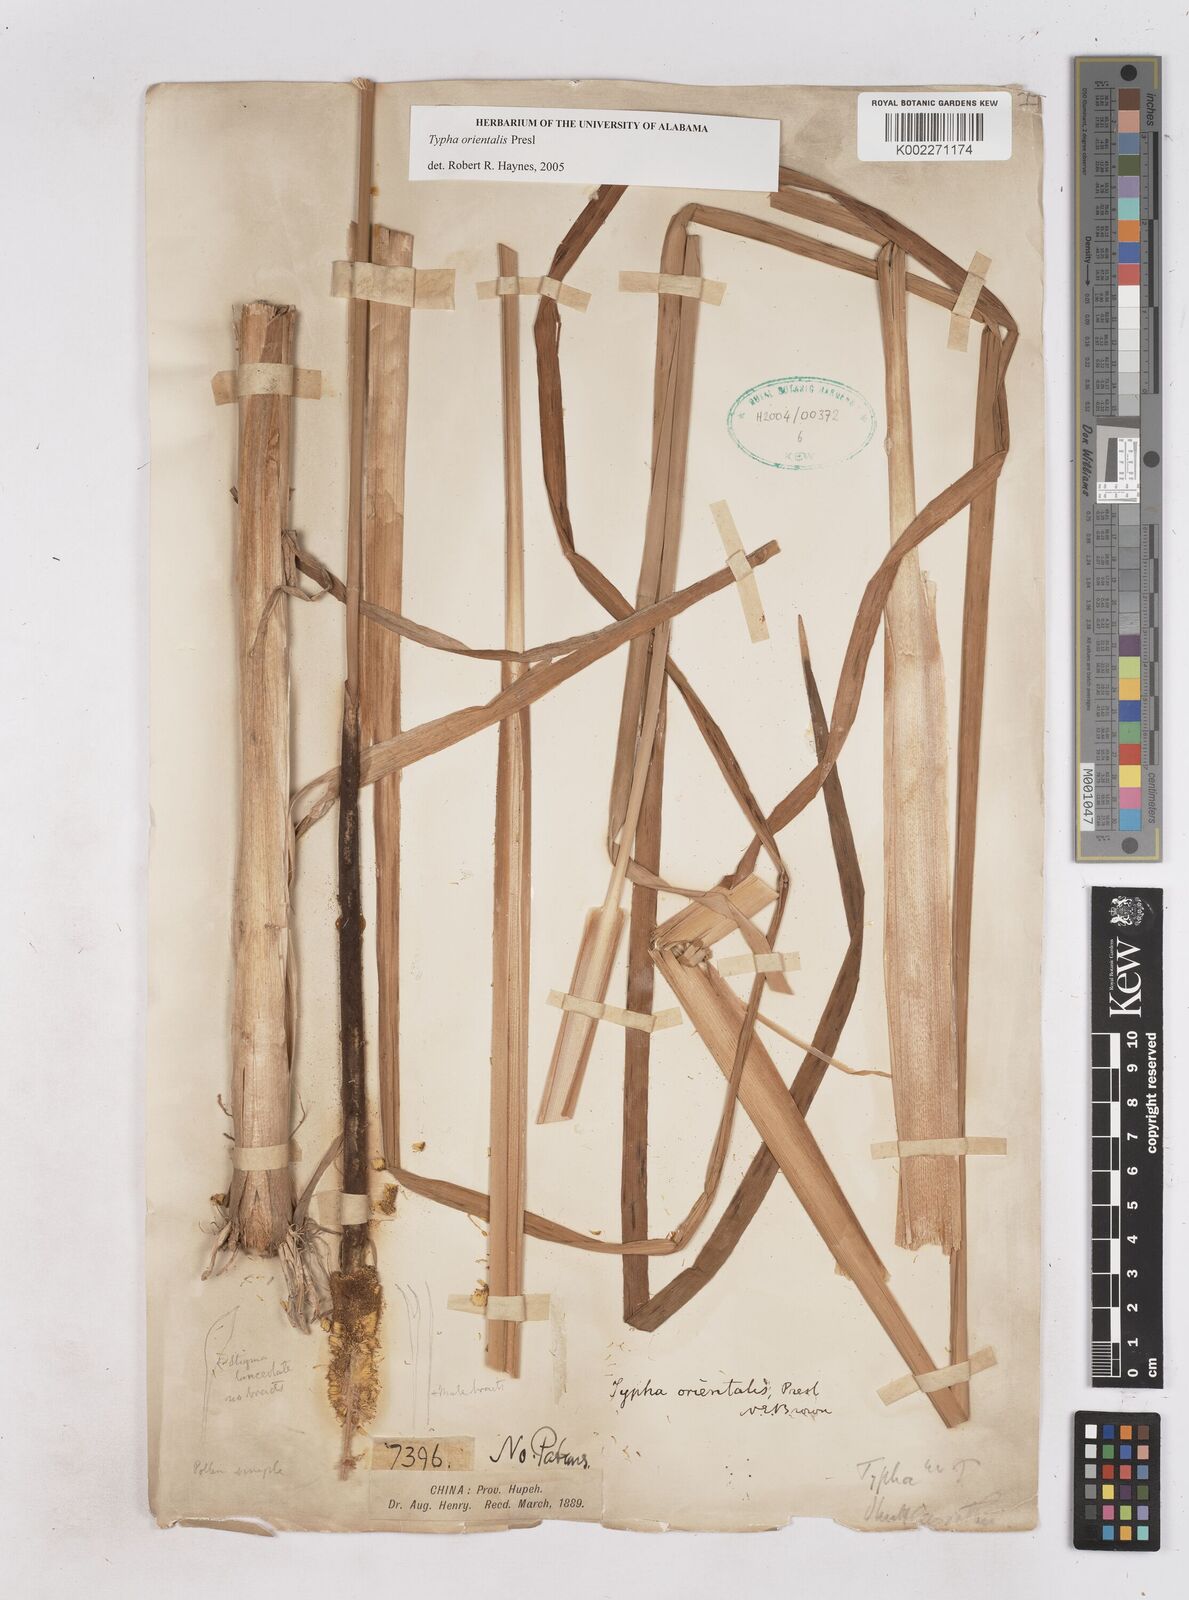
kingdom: Plantae
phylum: Tracheophyta
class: Liliopsida
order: Poales
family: Typhaceae
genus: Typha
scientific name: Typha shuttleworthii
